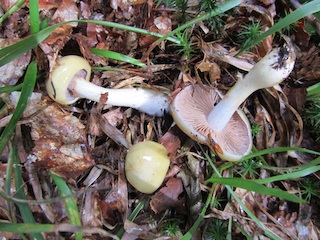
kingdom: Fungi
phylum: Basidiomycota
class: Agaricomycetes
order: Agaricales
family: Cortinariaceae
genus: Cortinarius
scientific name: Cortinarius delibutus
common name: gul slørhat
